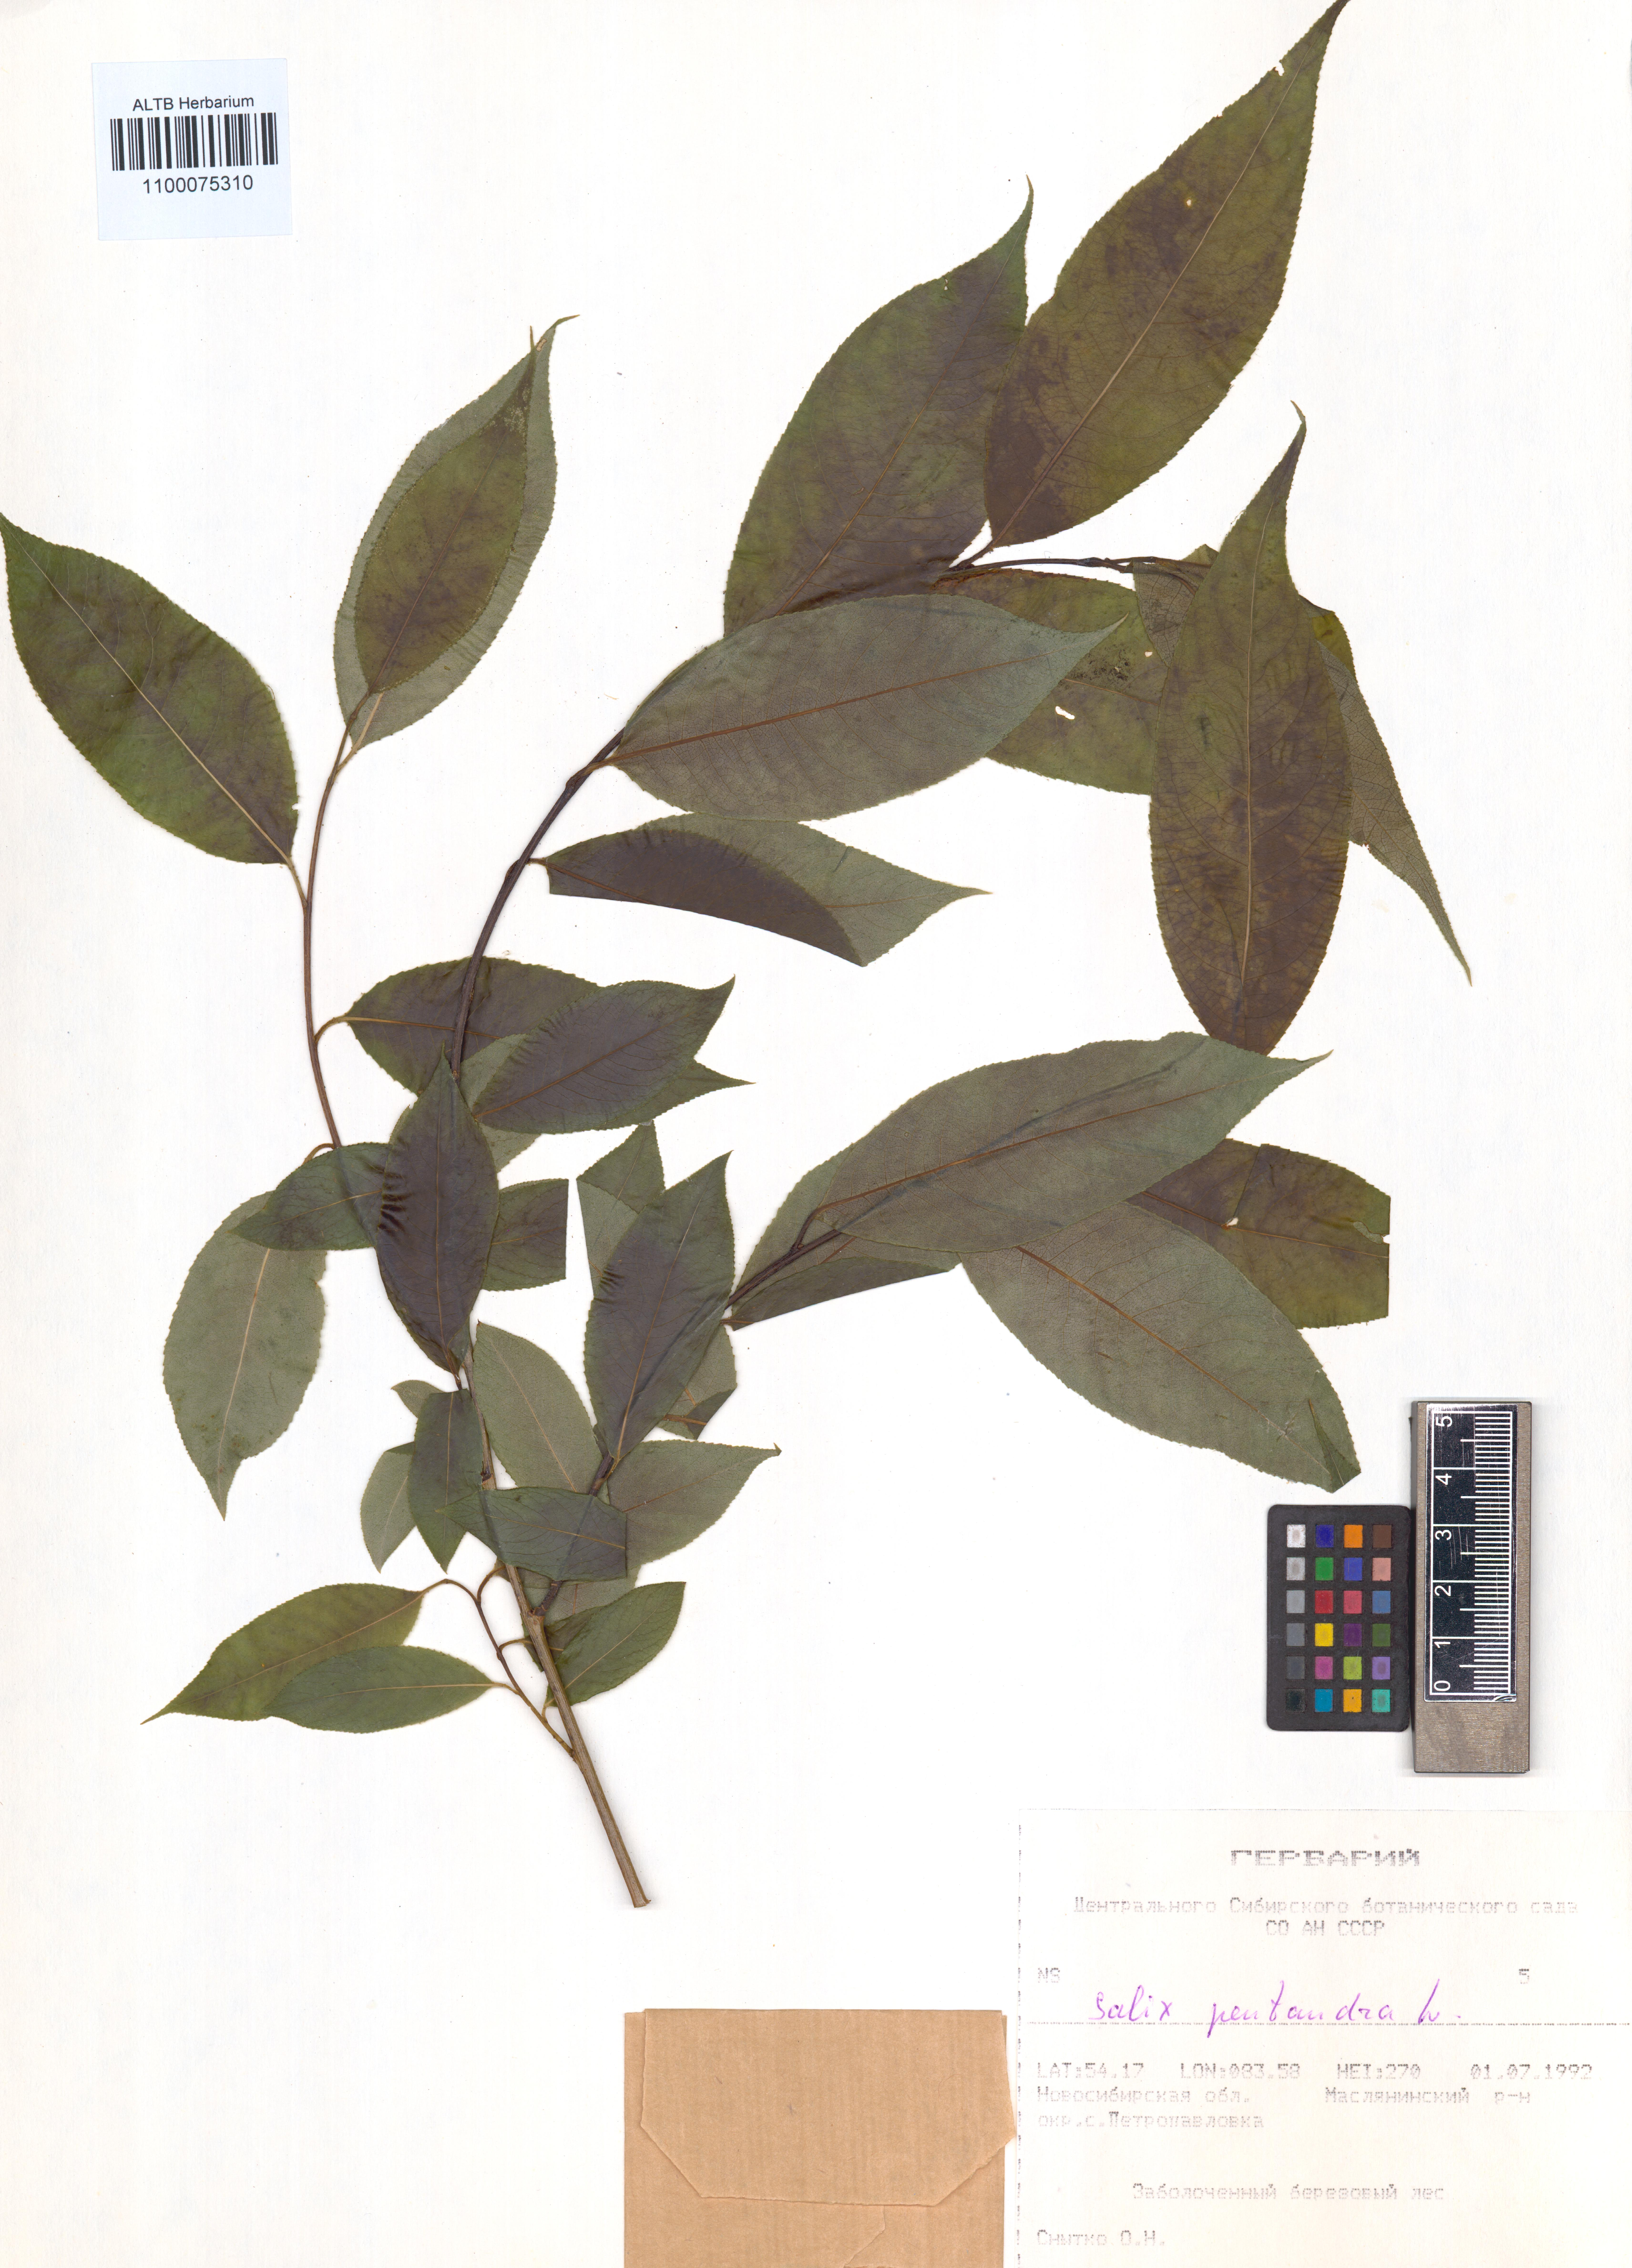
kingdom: Plantae
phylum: Tracheophyta
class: Magnoliopsida
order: Malpighiales
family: Salicaceae
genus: Salix
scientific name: Salix pentandra
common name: Bay willow
